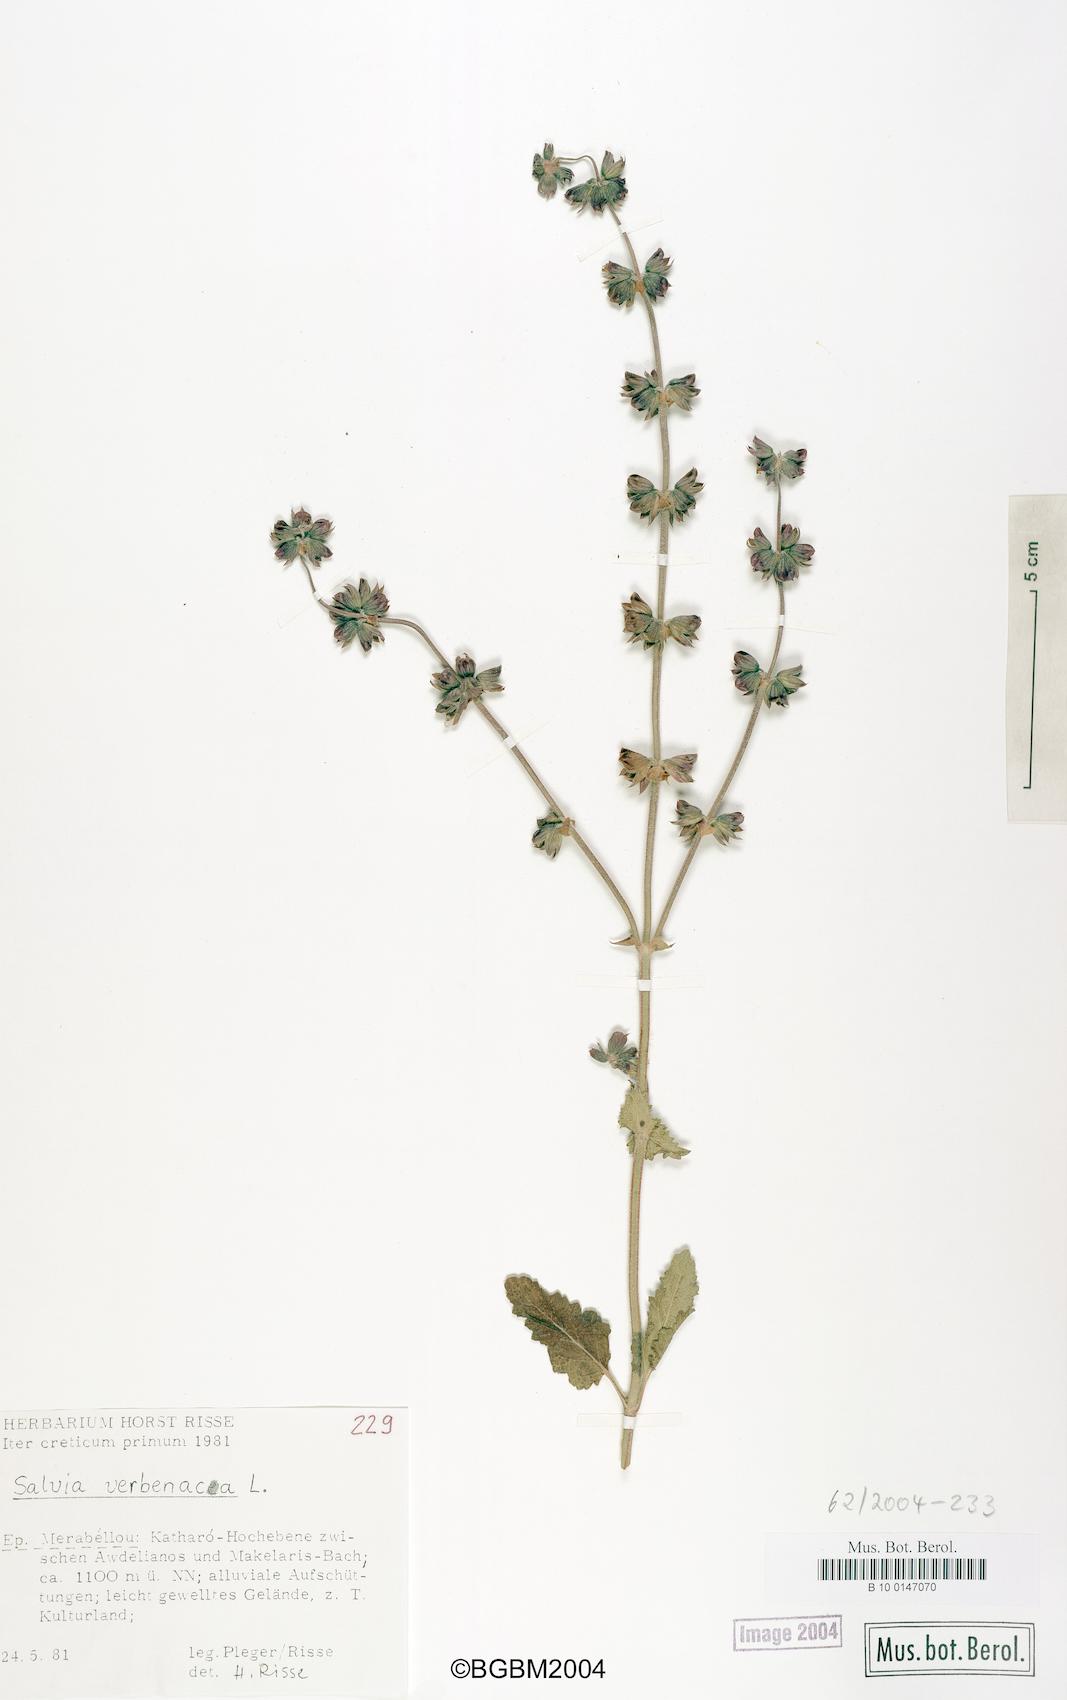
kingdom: Plantae
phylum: Tracheophyta
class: Magnoliopsida
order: Lamiales
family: Lamiaceae
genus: Salvia
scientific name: Salvia verbenaca
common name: Wild clary
